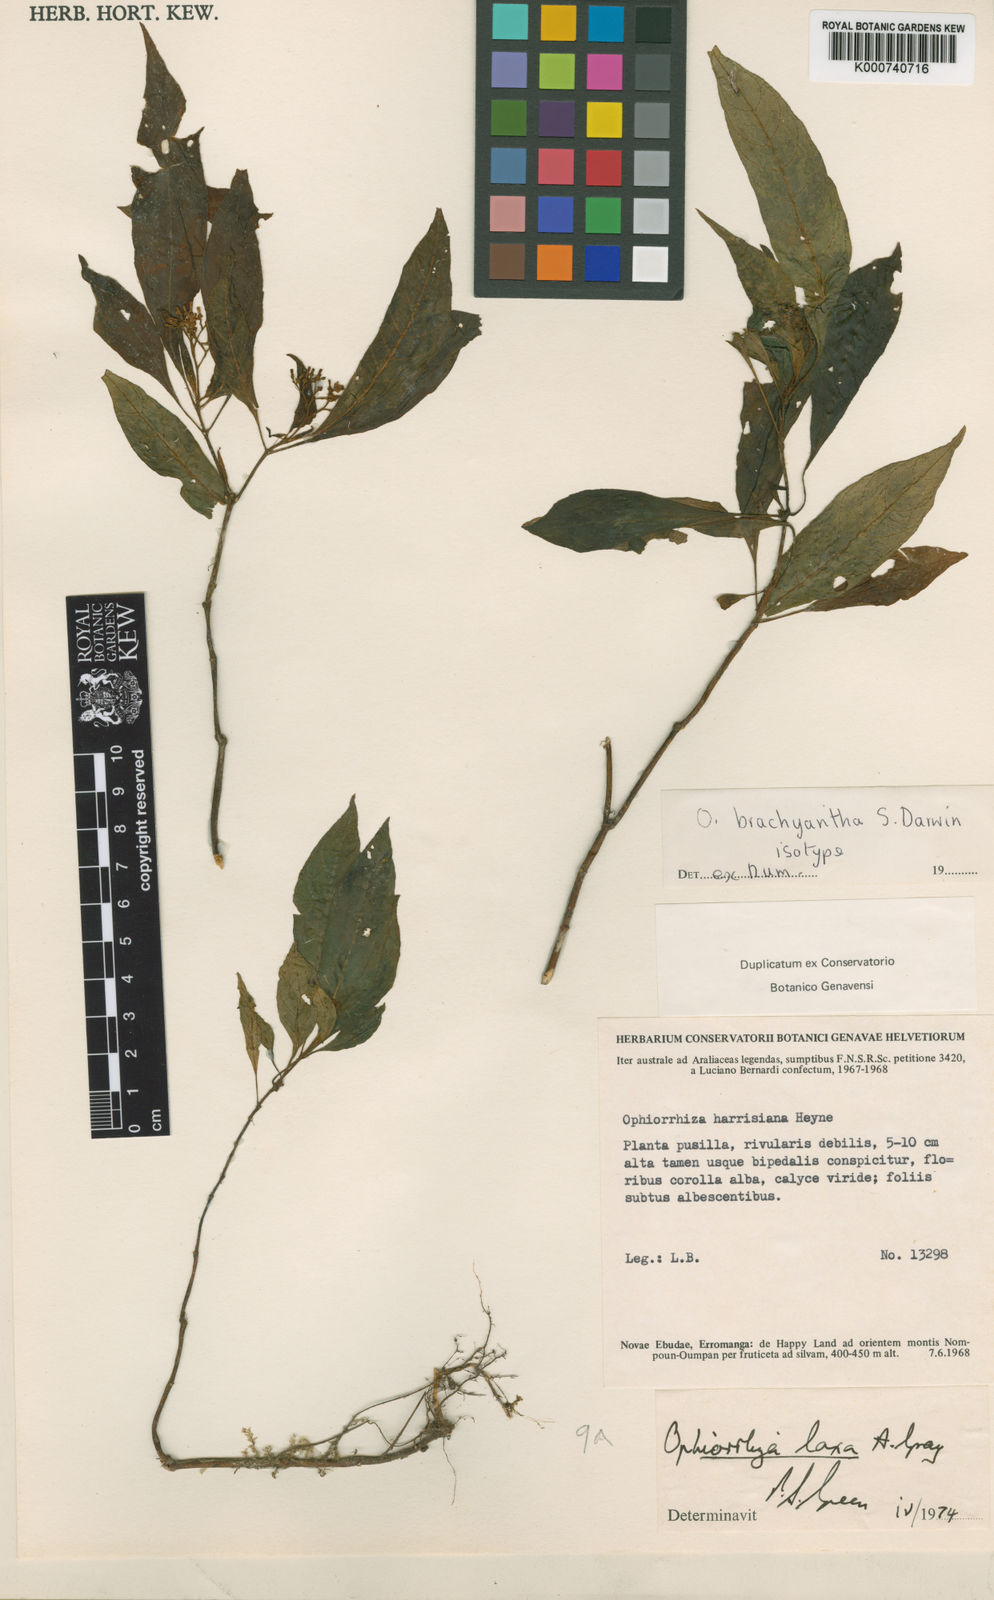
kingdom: Plantae
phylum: Tracheophyta
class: Magnoliopsida
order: Gentianales
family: Rubiaceae
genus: Ophiorrhiza
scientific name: Ophiorrhiza brachyantha
